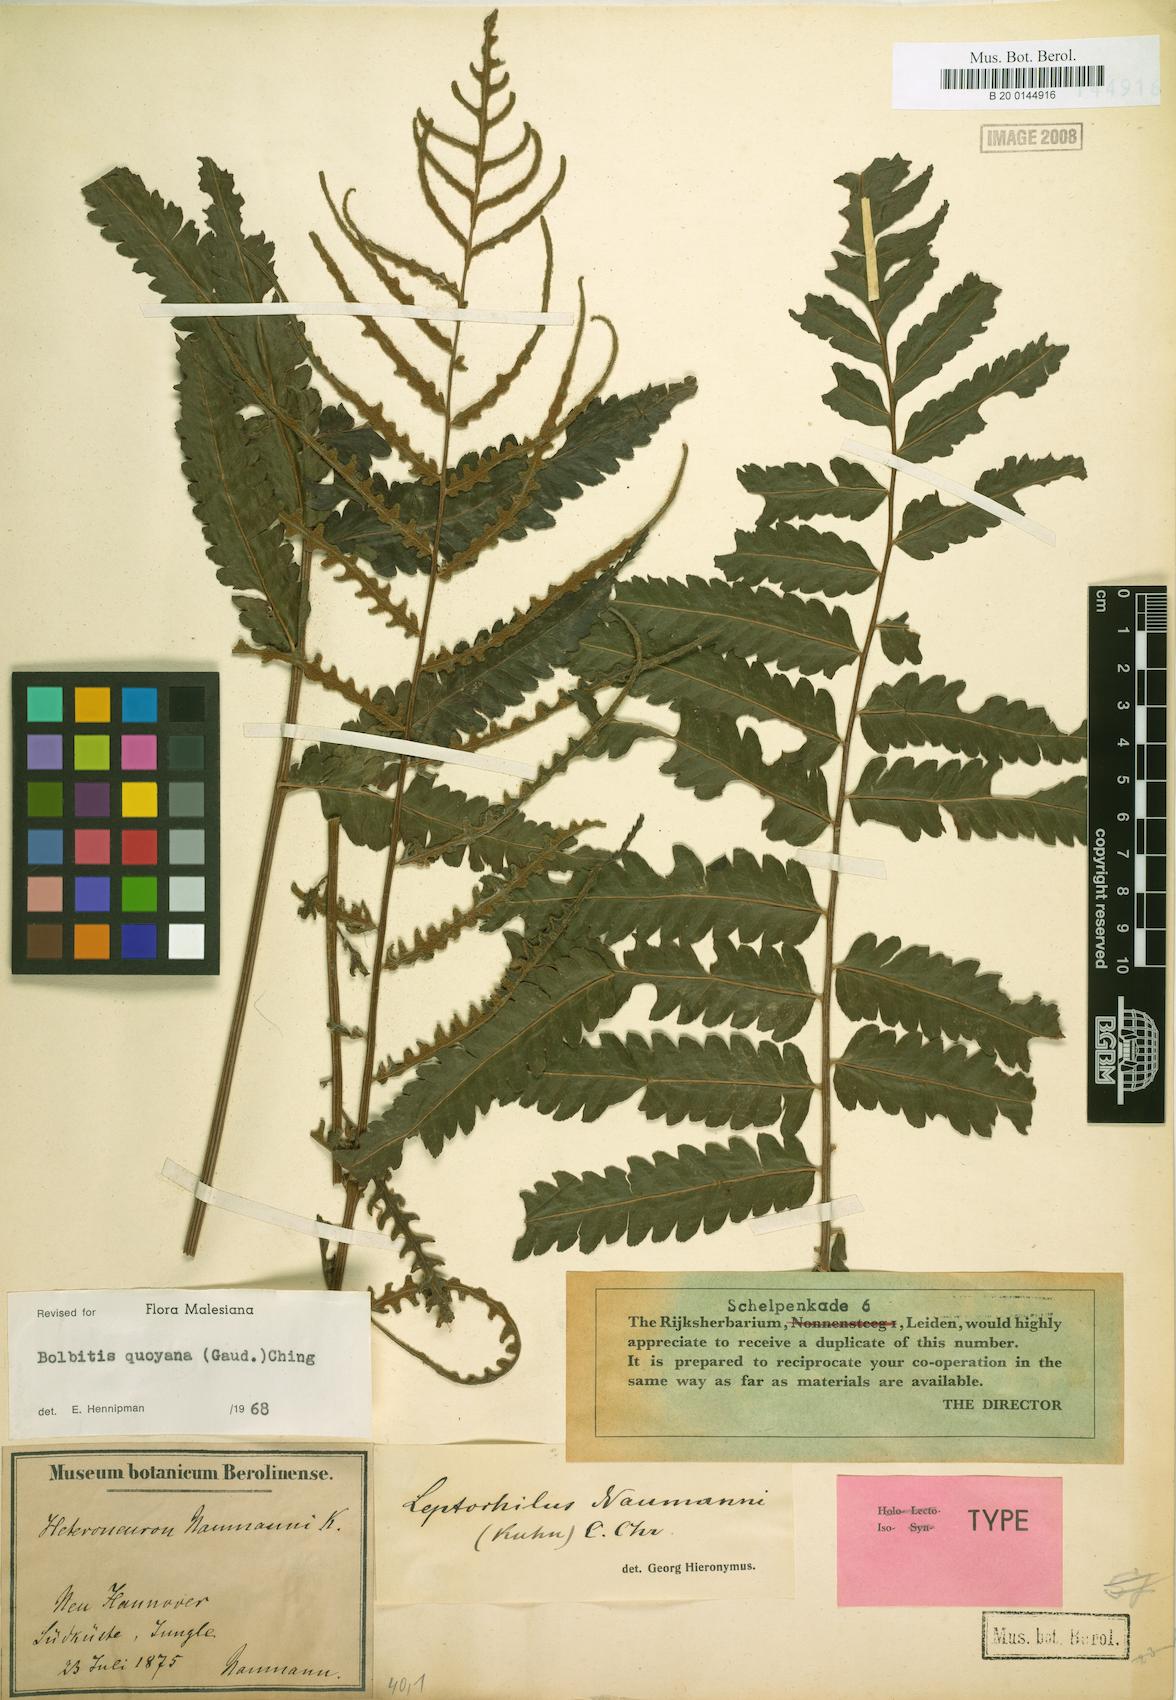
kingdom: Plantae
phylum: Tracheophyta
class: Polypodiopsida
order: Polypodiales
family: Dryopteridaceae
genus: Bolbitis
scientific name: Bolbitis quoyana
